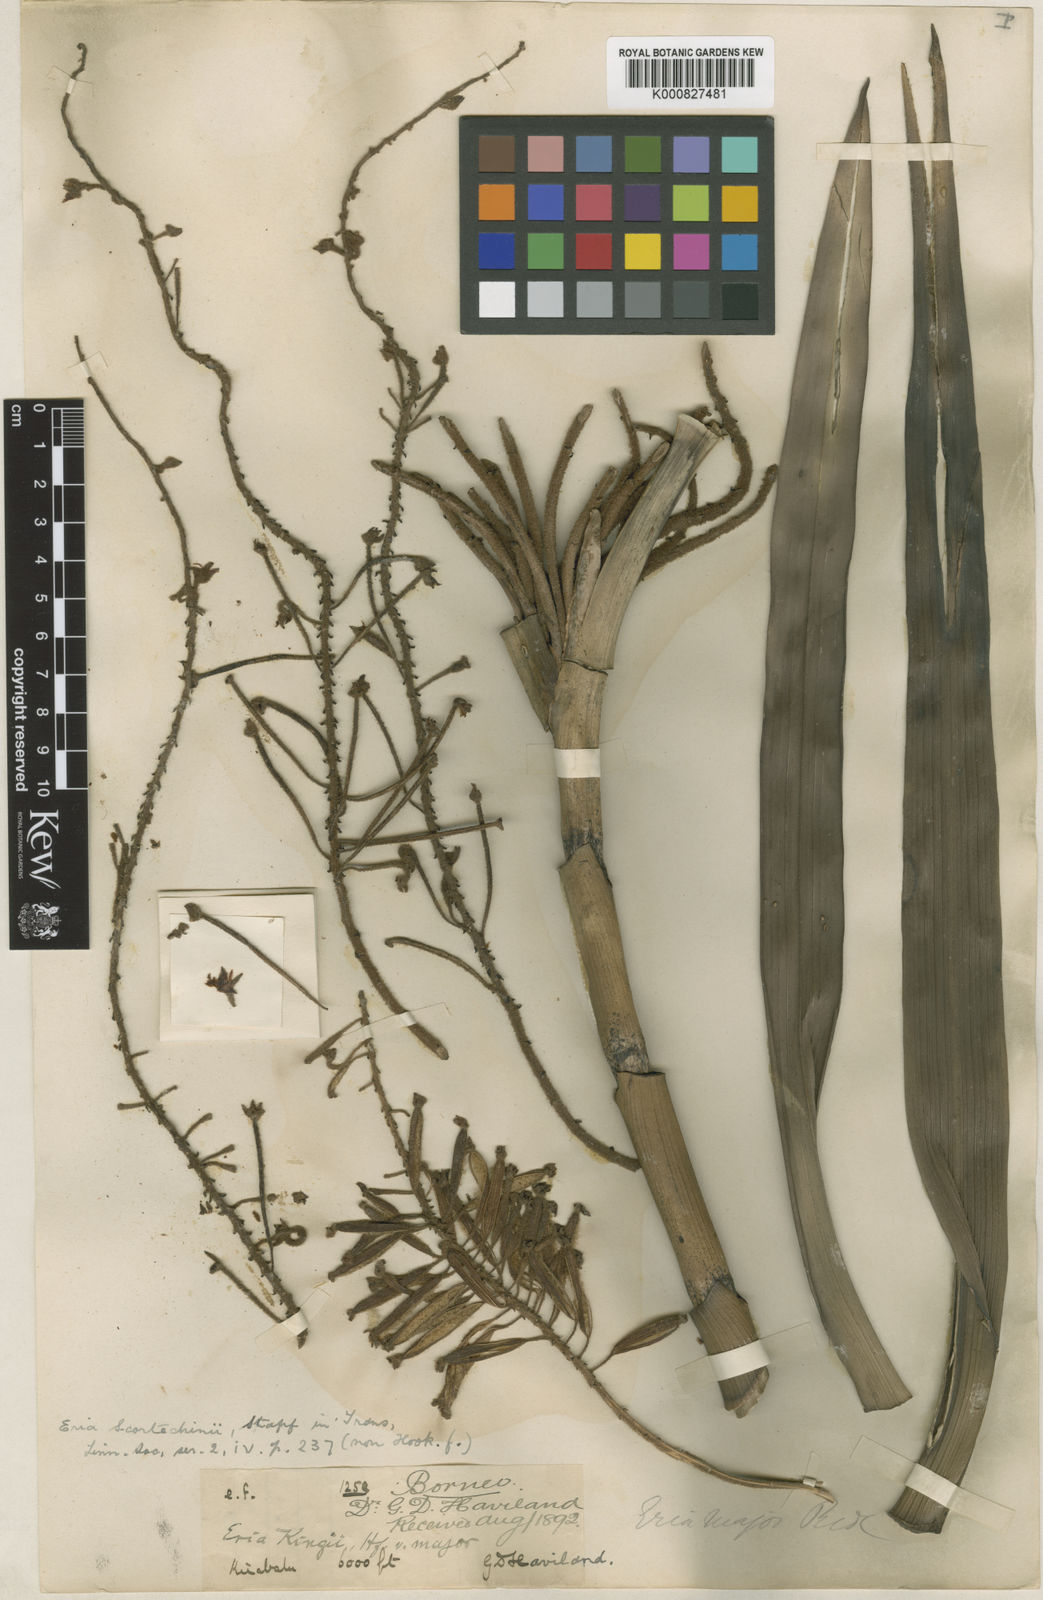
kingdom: Plantae
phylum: Tracheophyta
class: Liliopsida
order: Asparagales
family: Orchidaceae
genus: Mycaranthes
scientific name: Mycaranthes oblitterata
